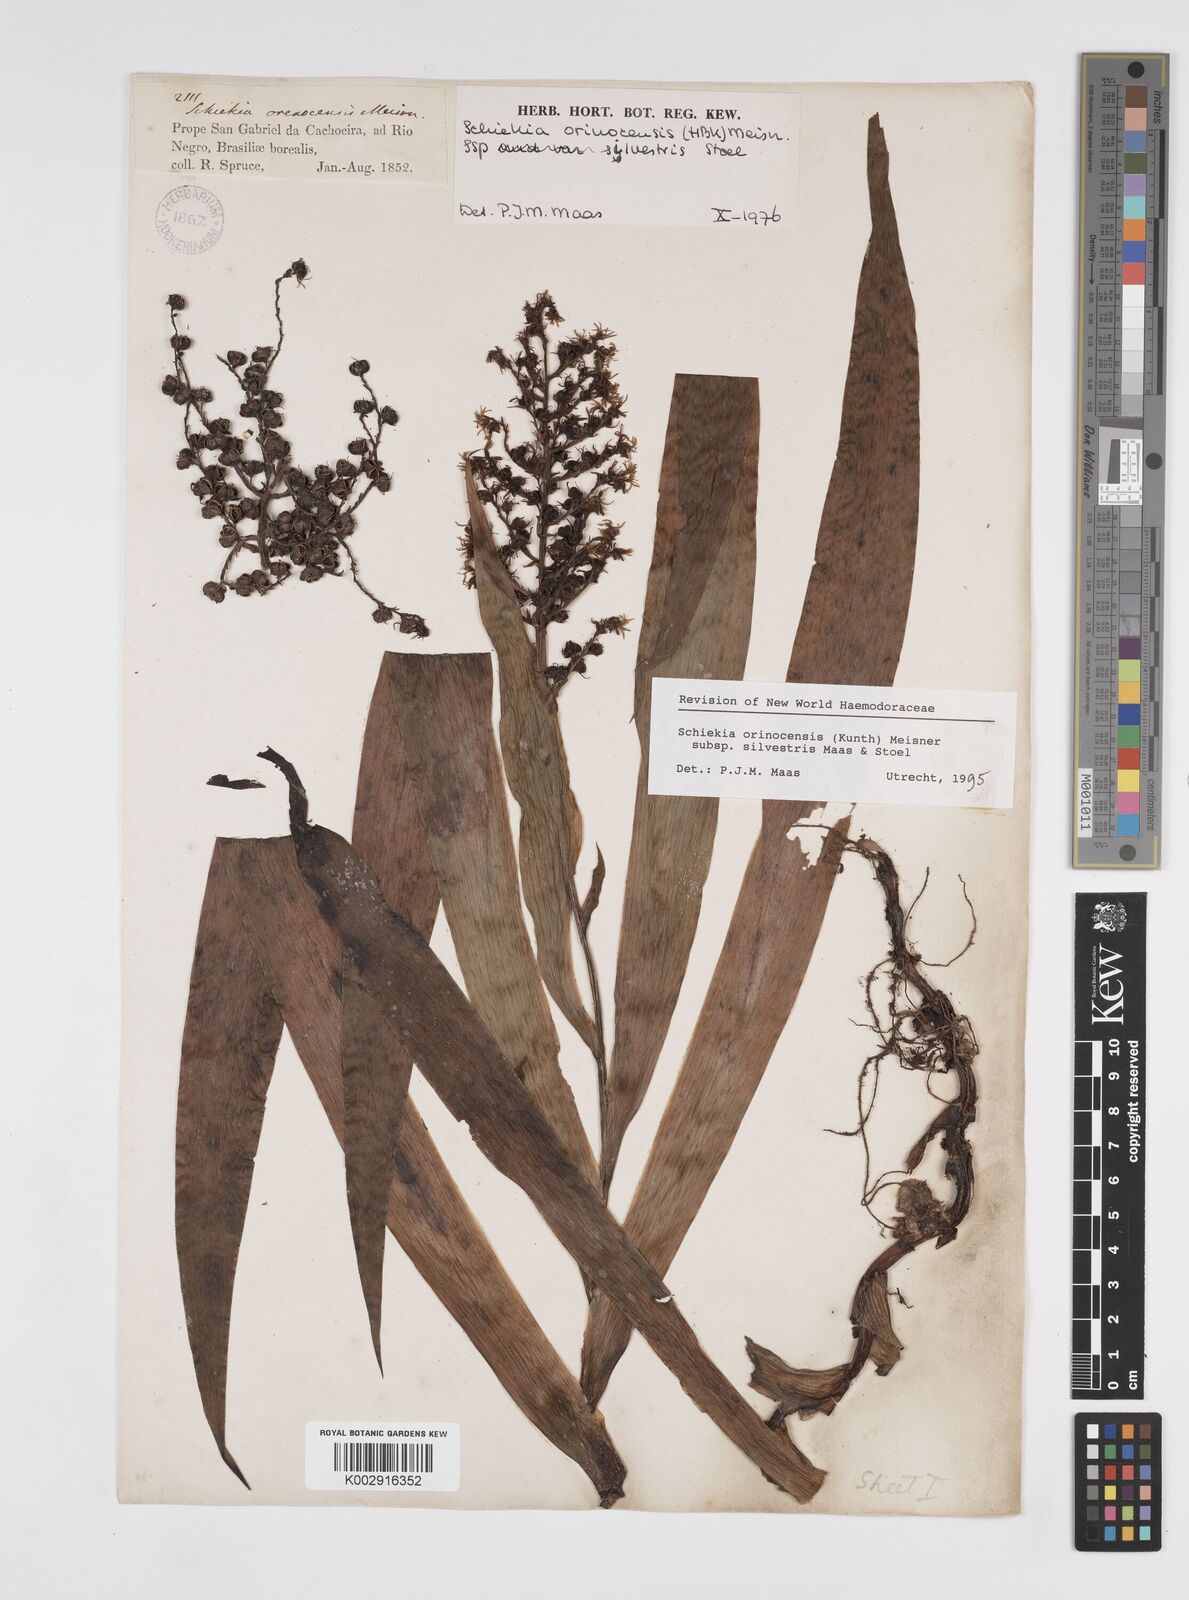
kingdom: Plantae
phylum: Tracheophyta
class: Liliopsida
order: Commelinales
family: Haemodoraceae
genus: Schiekia
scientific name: Schiekia silvestris
